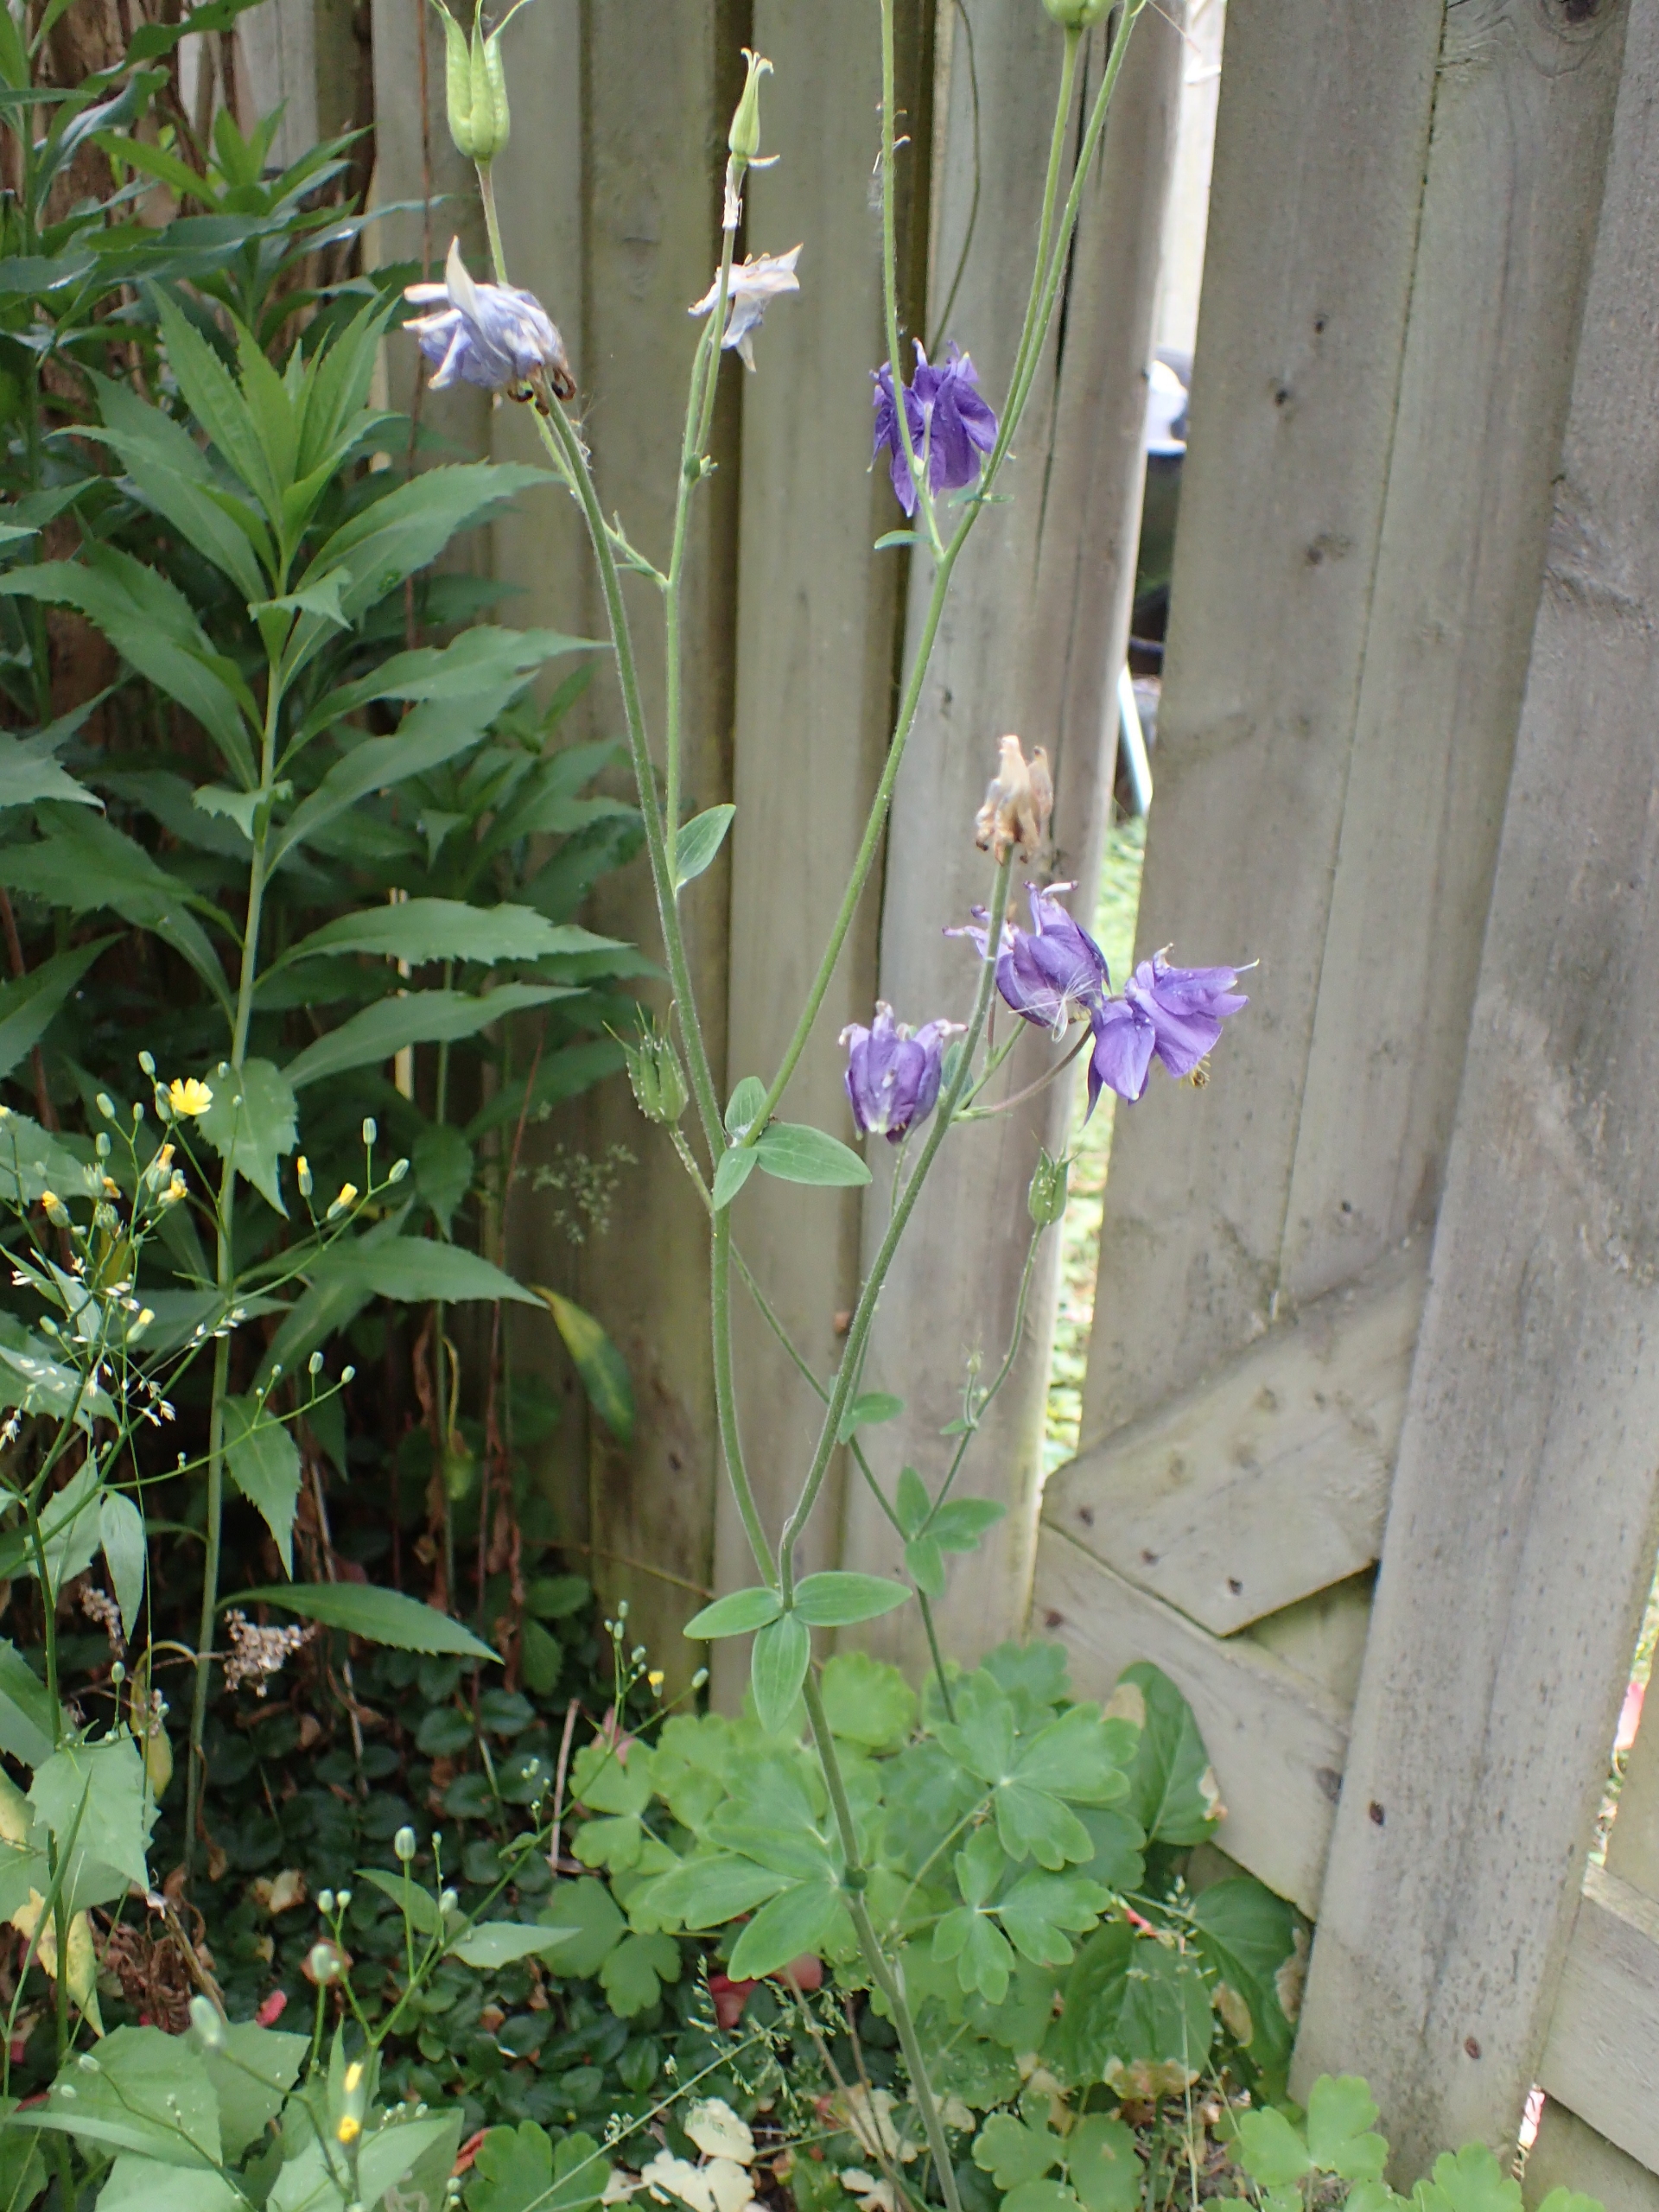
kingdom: Plantae
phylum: Tracheophyta
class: Magnoliopsida
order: Ranunculales
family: Ranunculaceae
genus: Aquilegia
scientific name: Aquilegia vulgaris
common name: Akeleje
